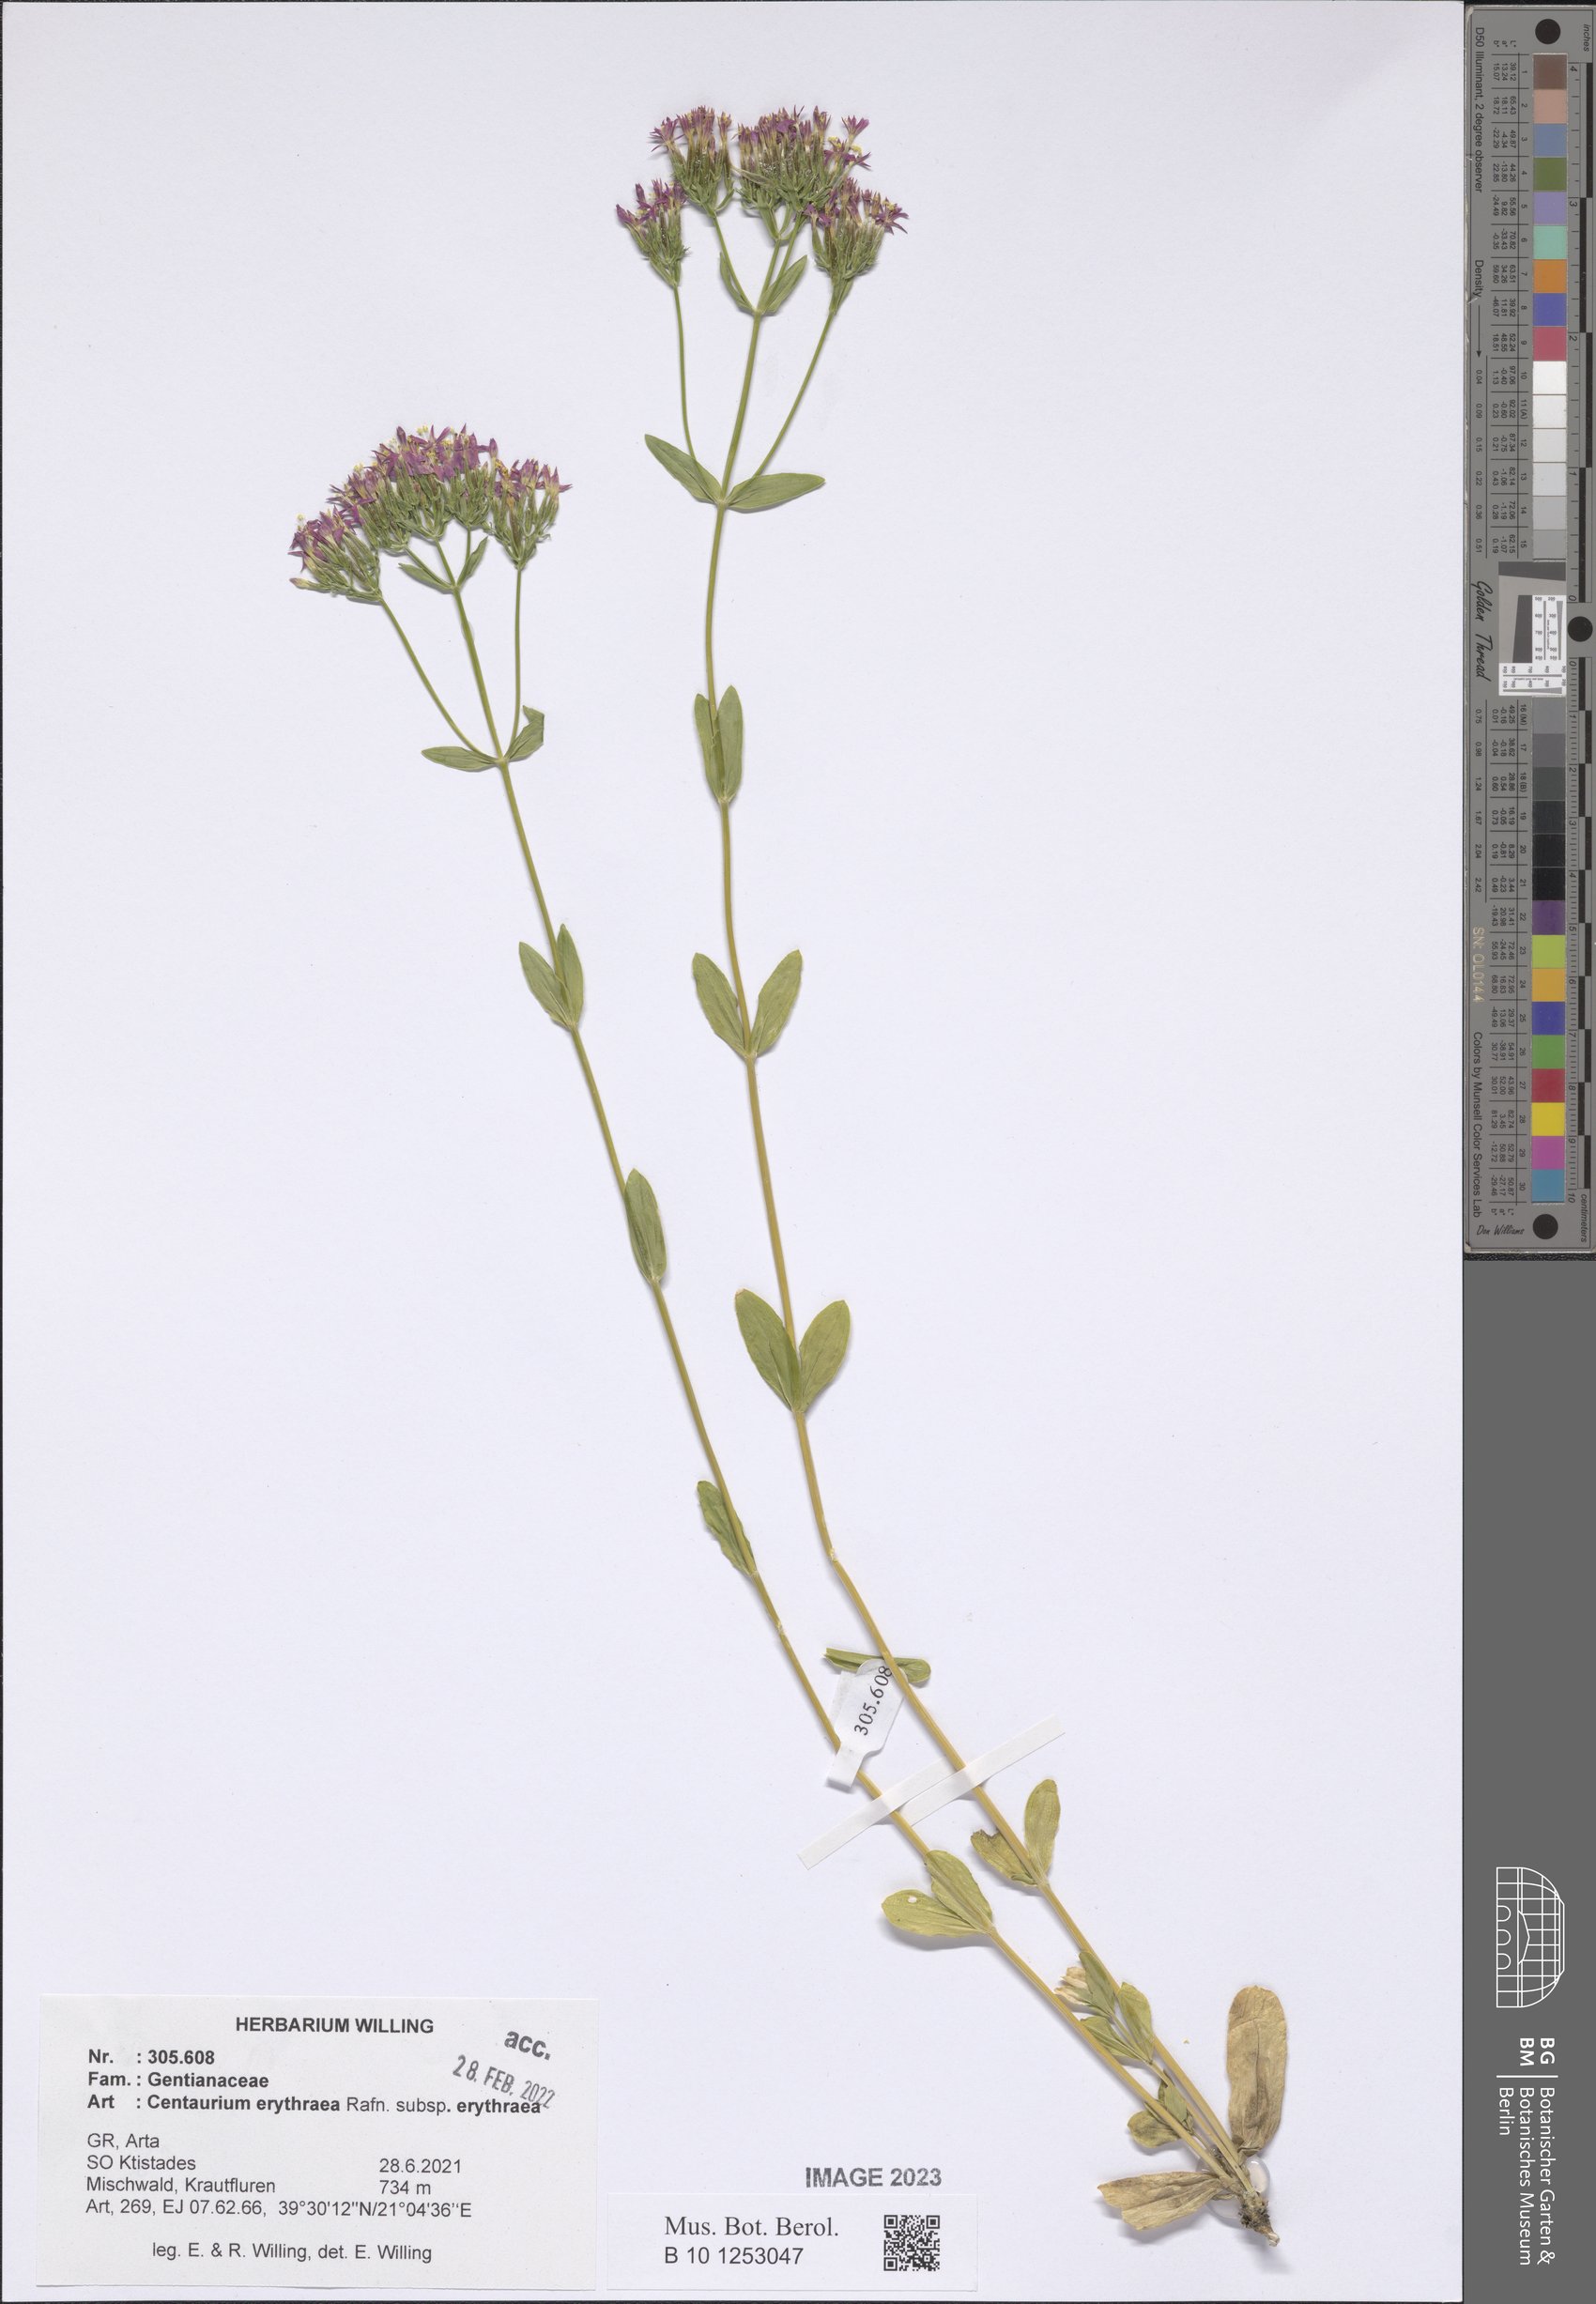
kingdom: Plantae
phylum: Tracheophyta
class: Magnoliopsida
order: Gentianales
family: Gentianaceae
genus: Centaurium
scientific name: Centaurium erythraea
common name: Common centaury
